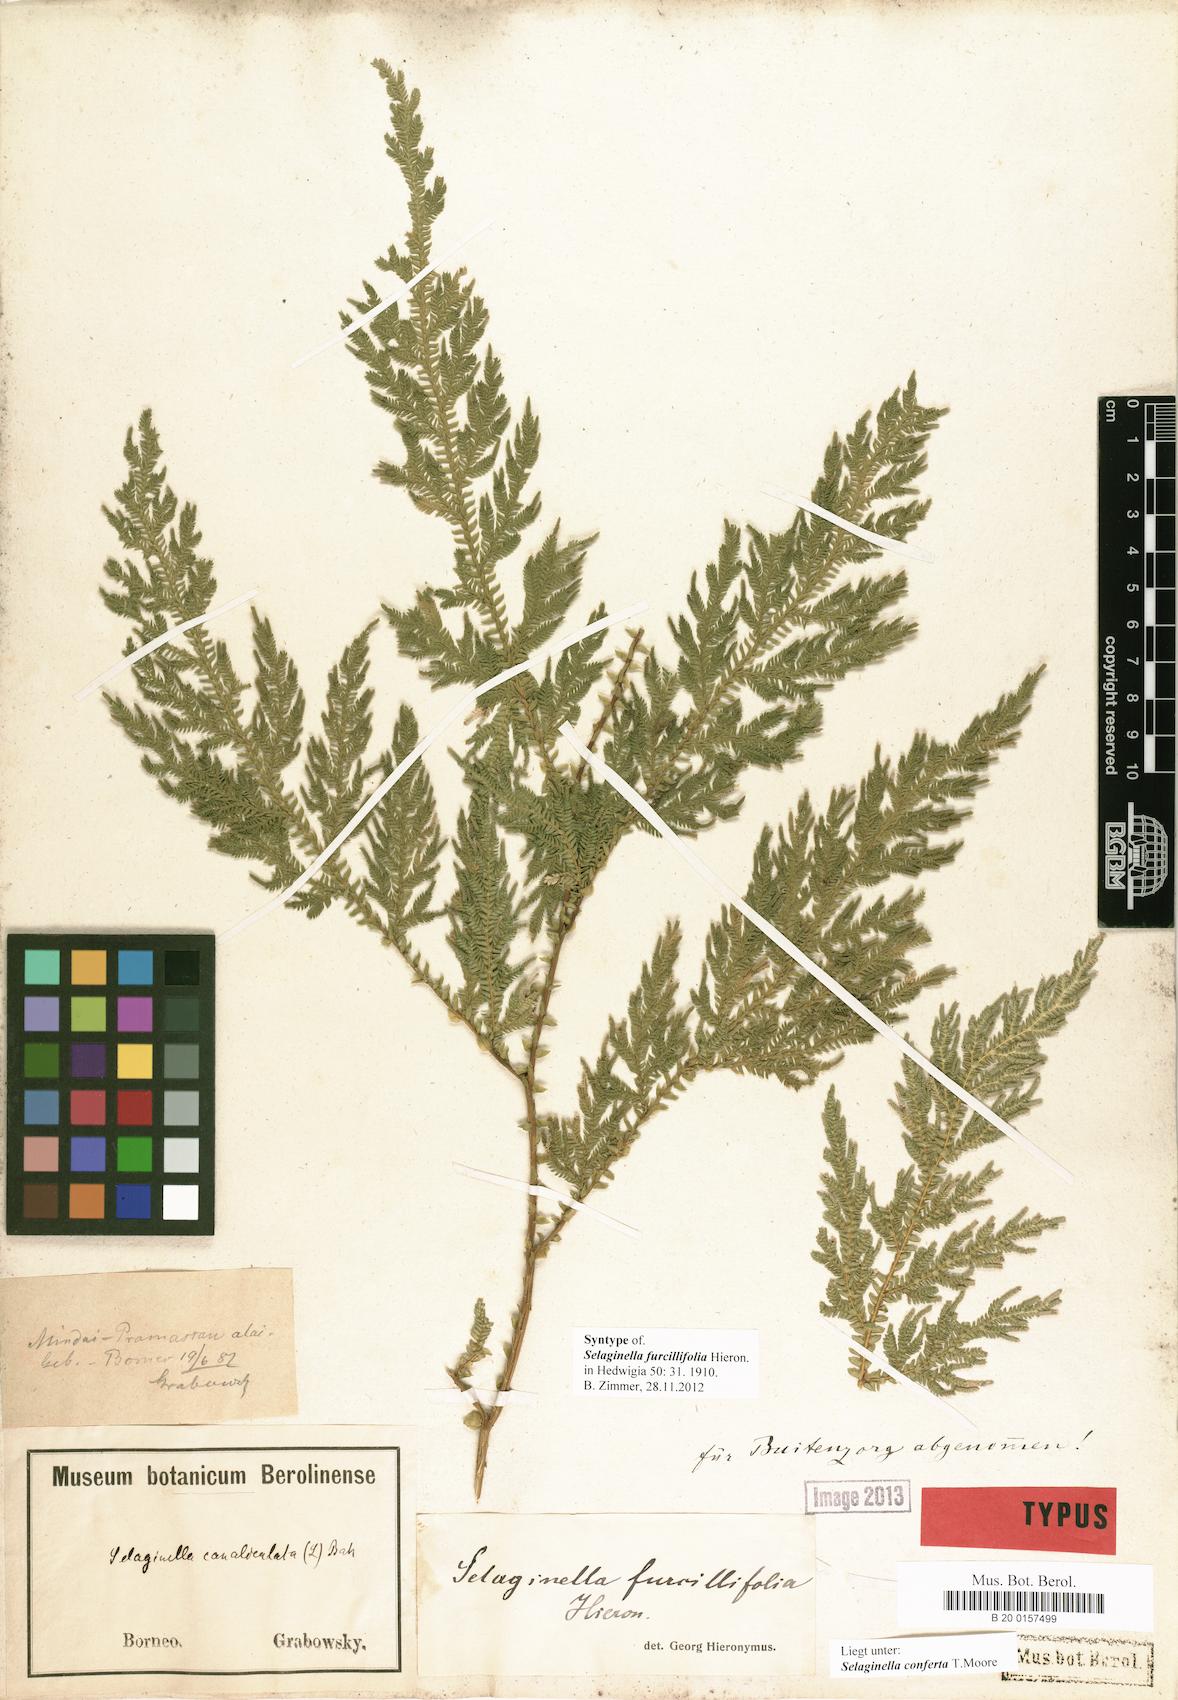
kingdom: Plantae
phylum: Tracheophyta
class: Lycopodiopsida
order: Selaginellales
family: Selaginellaceae
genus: Selaginella
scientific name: Selaginella furcillifolia
